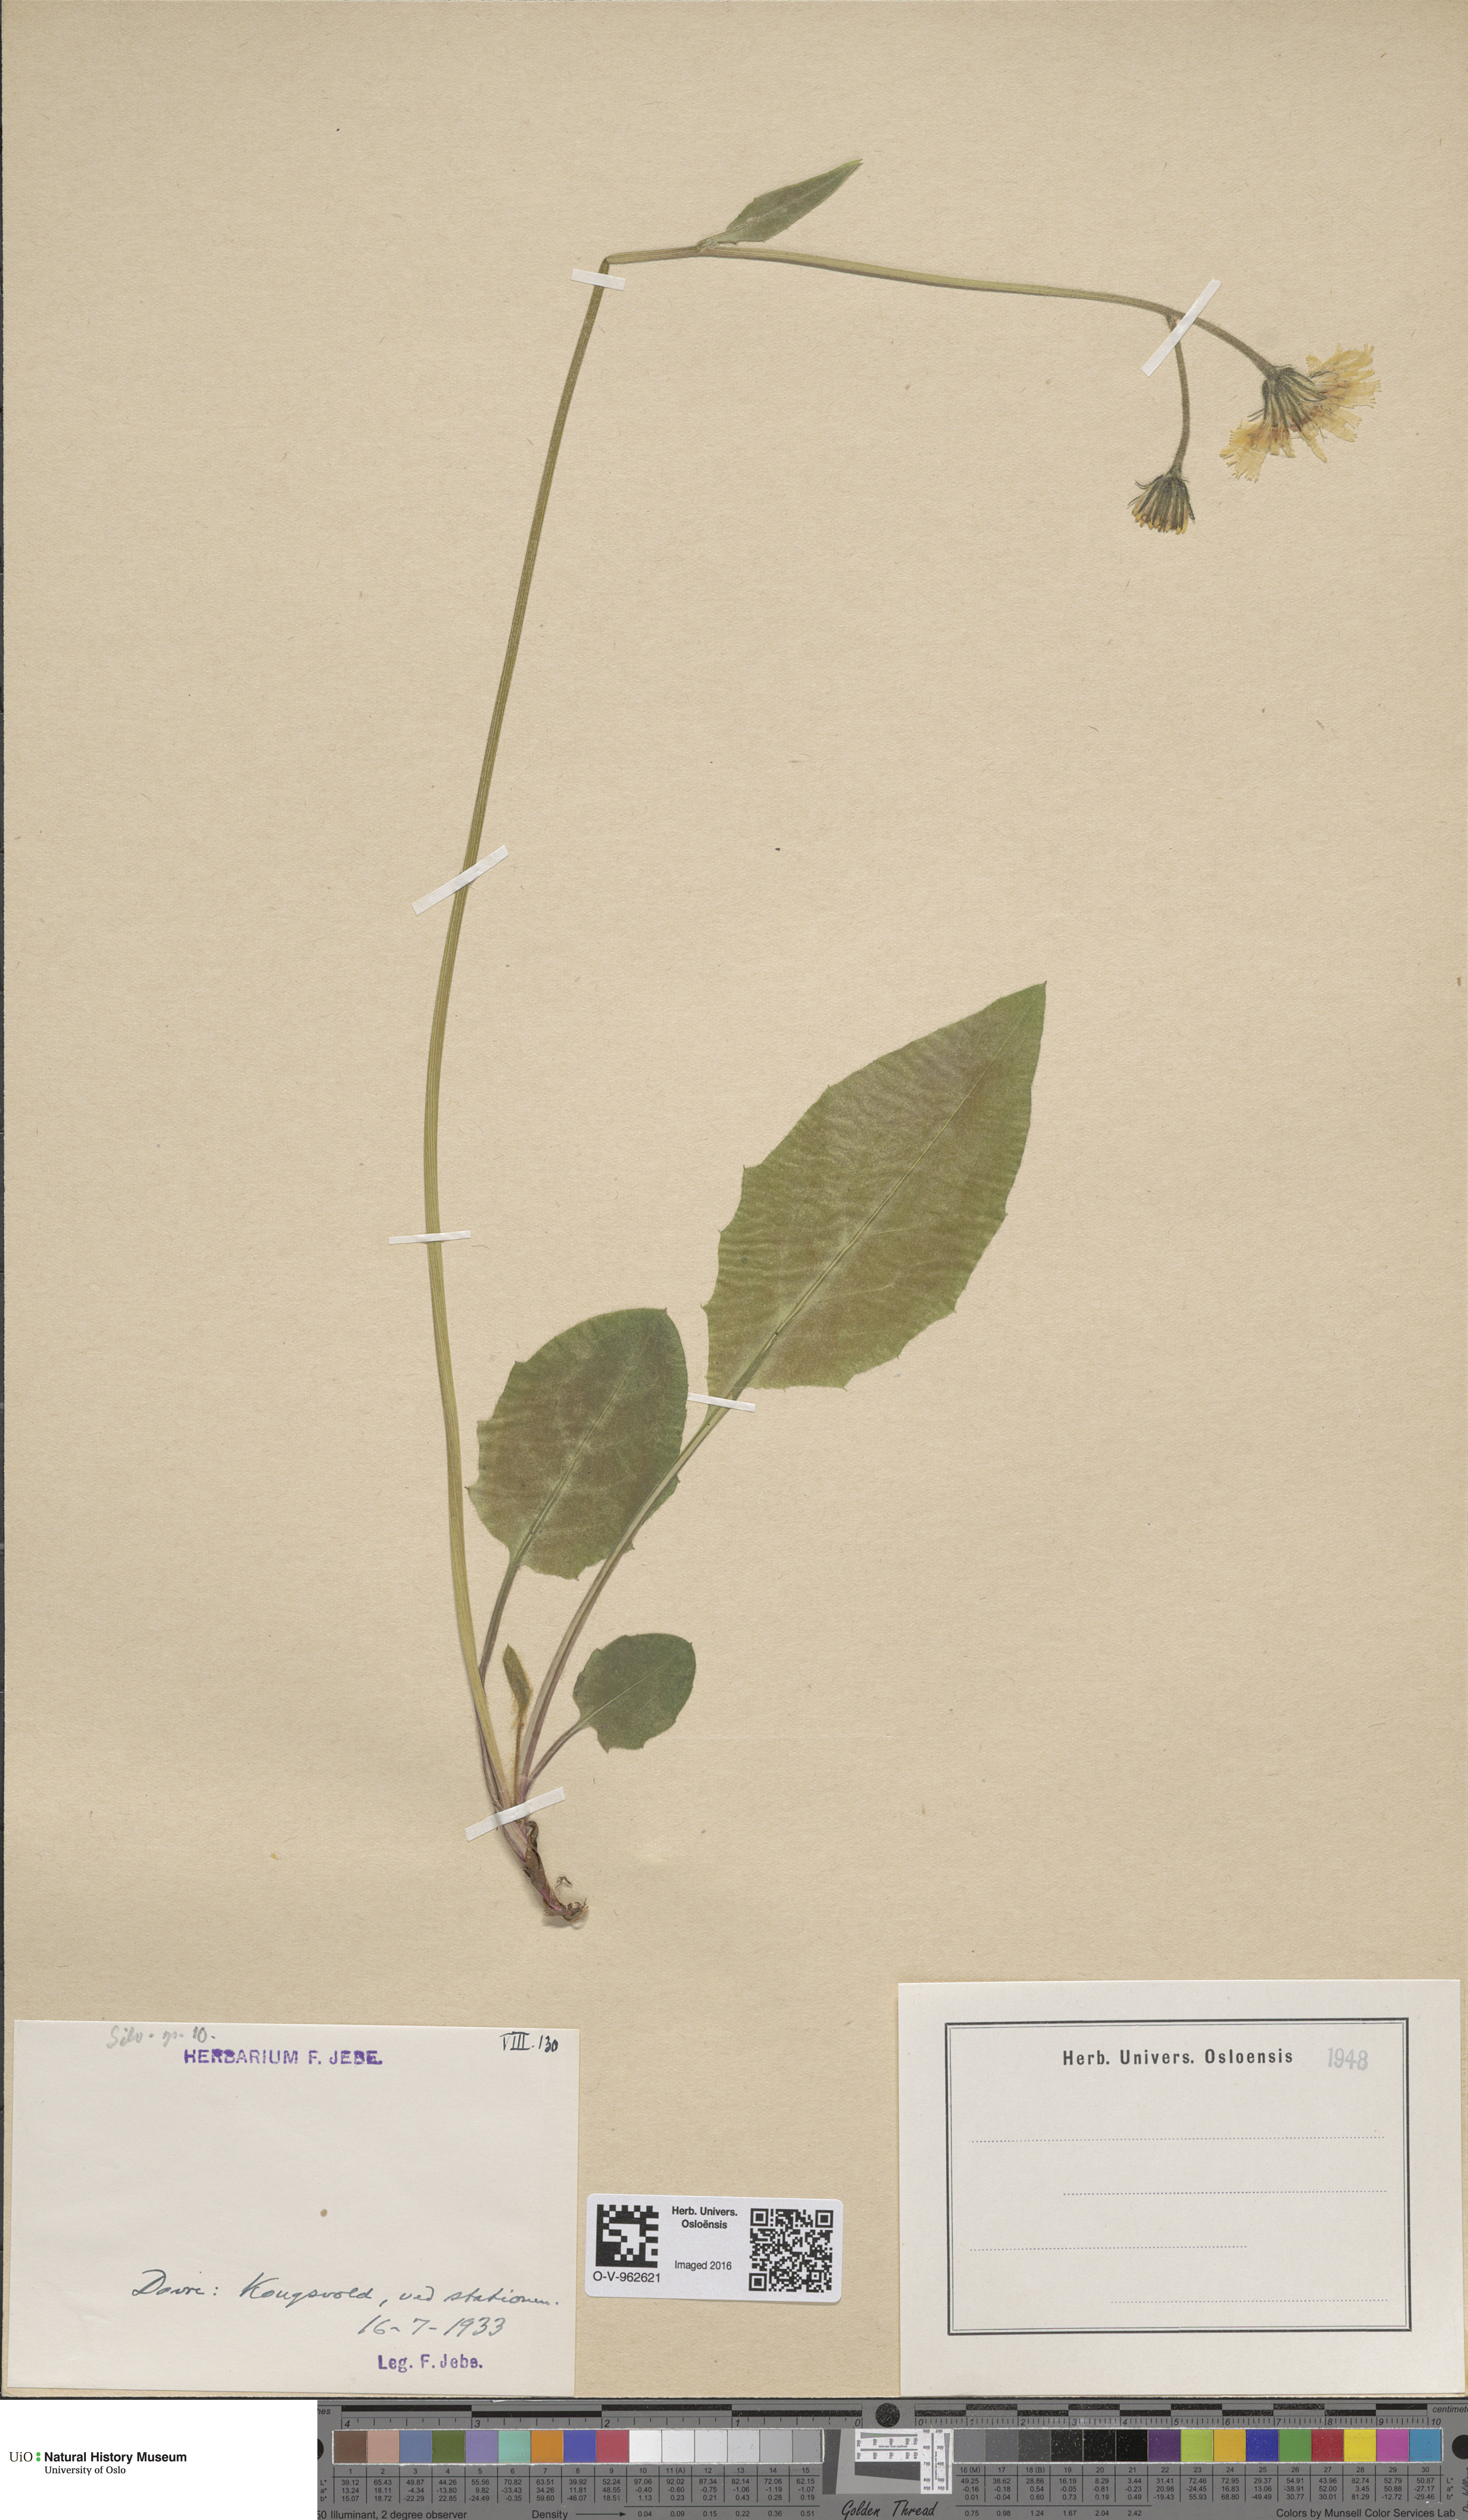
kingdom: Plantae
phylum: Tracheophyta
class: Magnoliopsida
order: Asterales
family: Asteraceae
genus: Hieracium
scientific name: Hieracium
